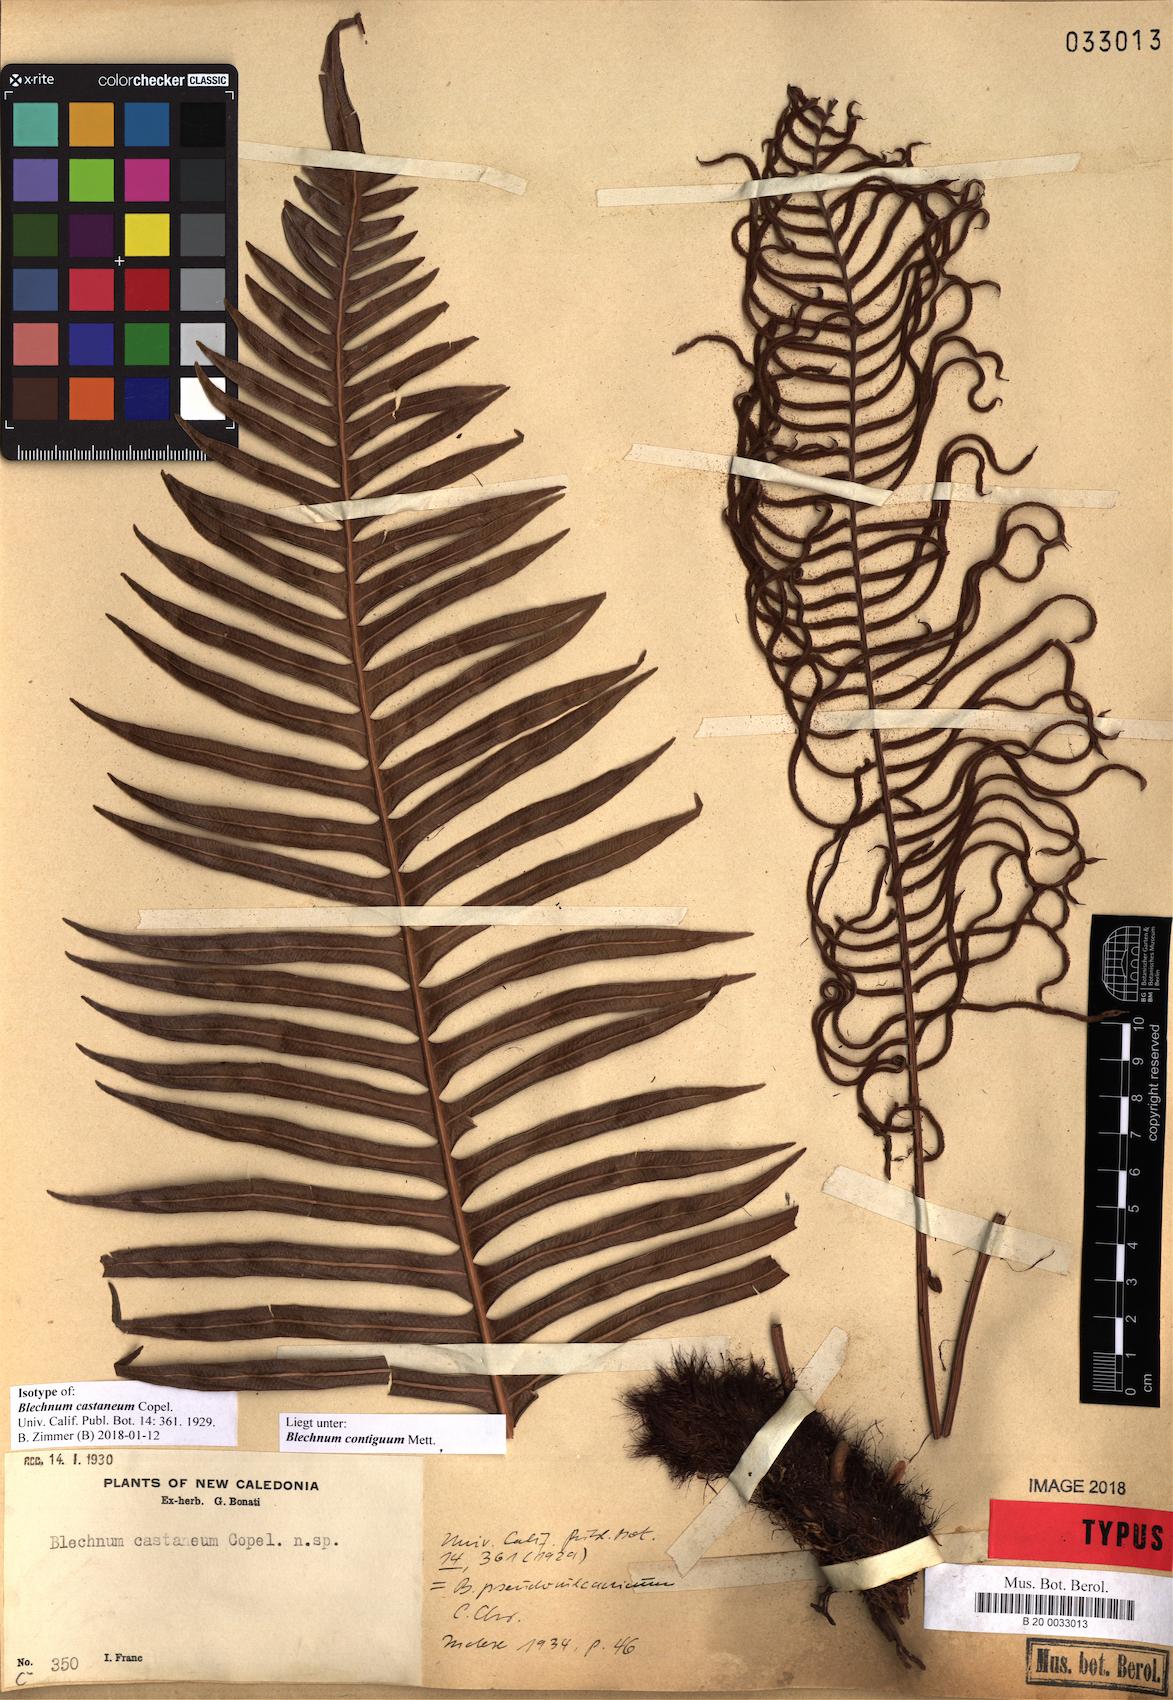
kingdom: Plantae
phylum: Tracheophyta
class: Polypodiopsida
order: Polypodiales
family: Blechnaceae
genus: Lomaridium
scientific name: Lomaridium contiguum
